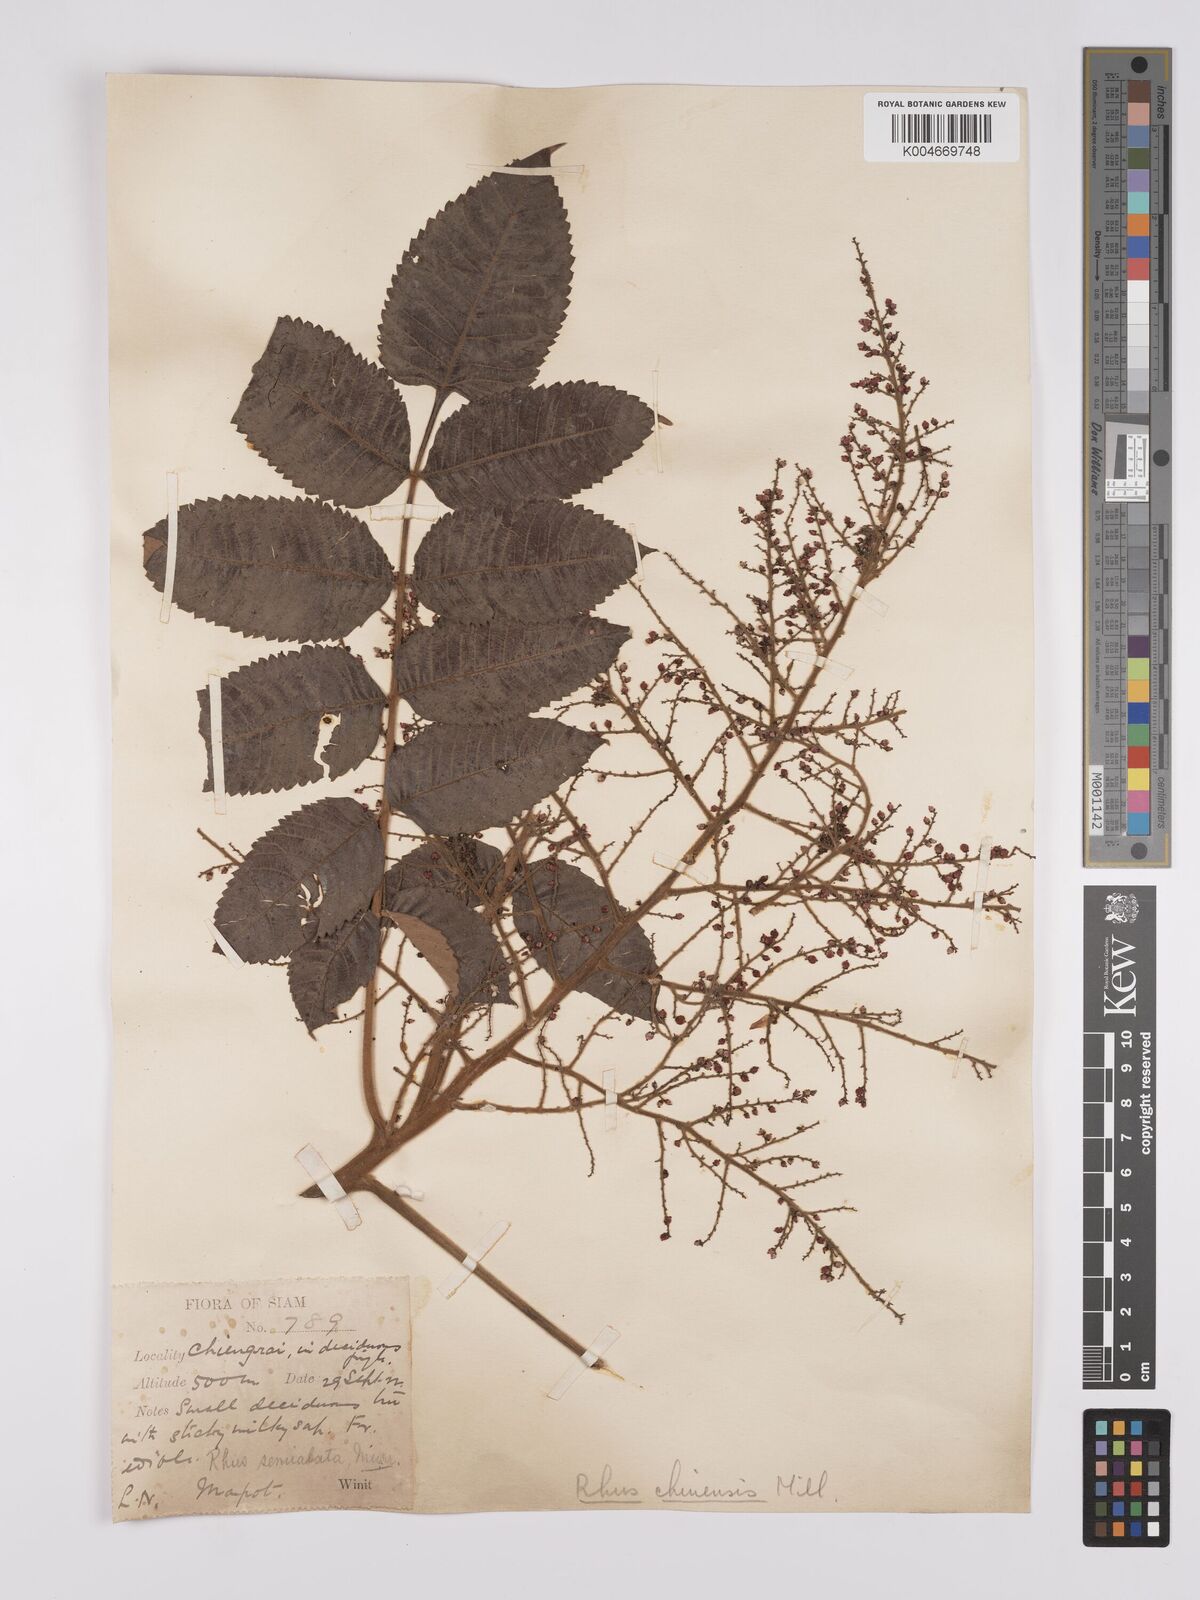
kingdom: Plantae
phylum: Tracheophyta
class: Magnoliopsida
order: Sapindales
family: Anacardiaceae
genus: Rhus
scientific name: Rhus chinensis
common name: Chinese gall
